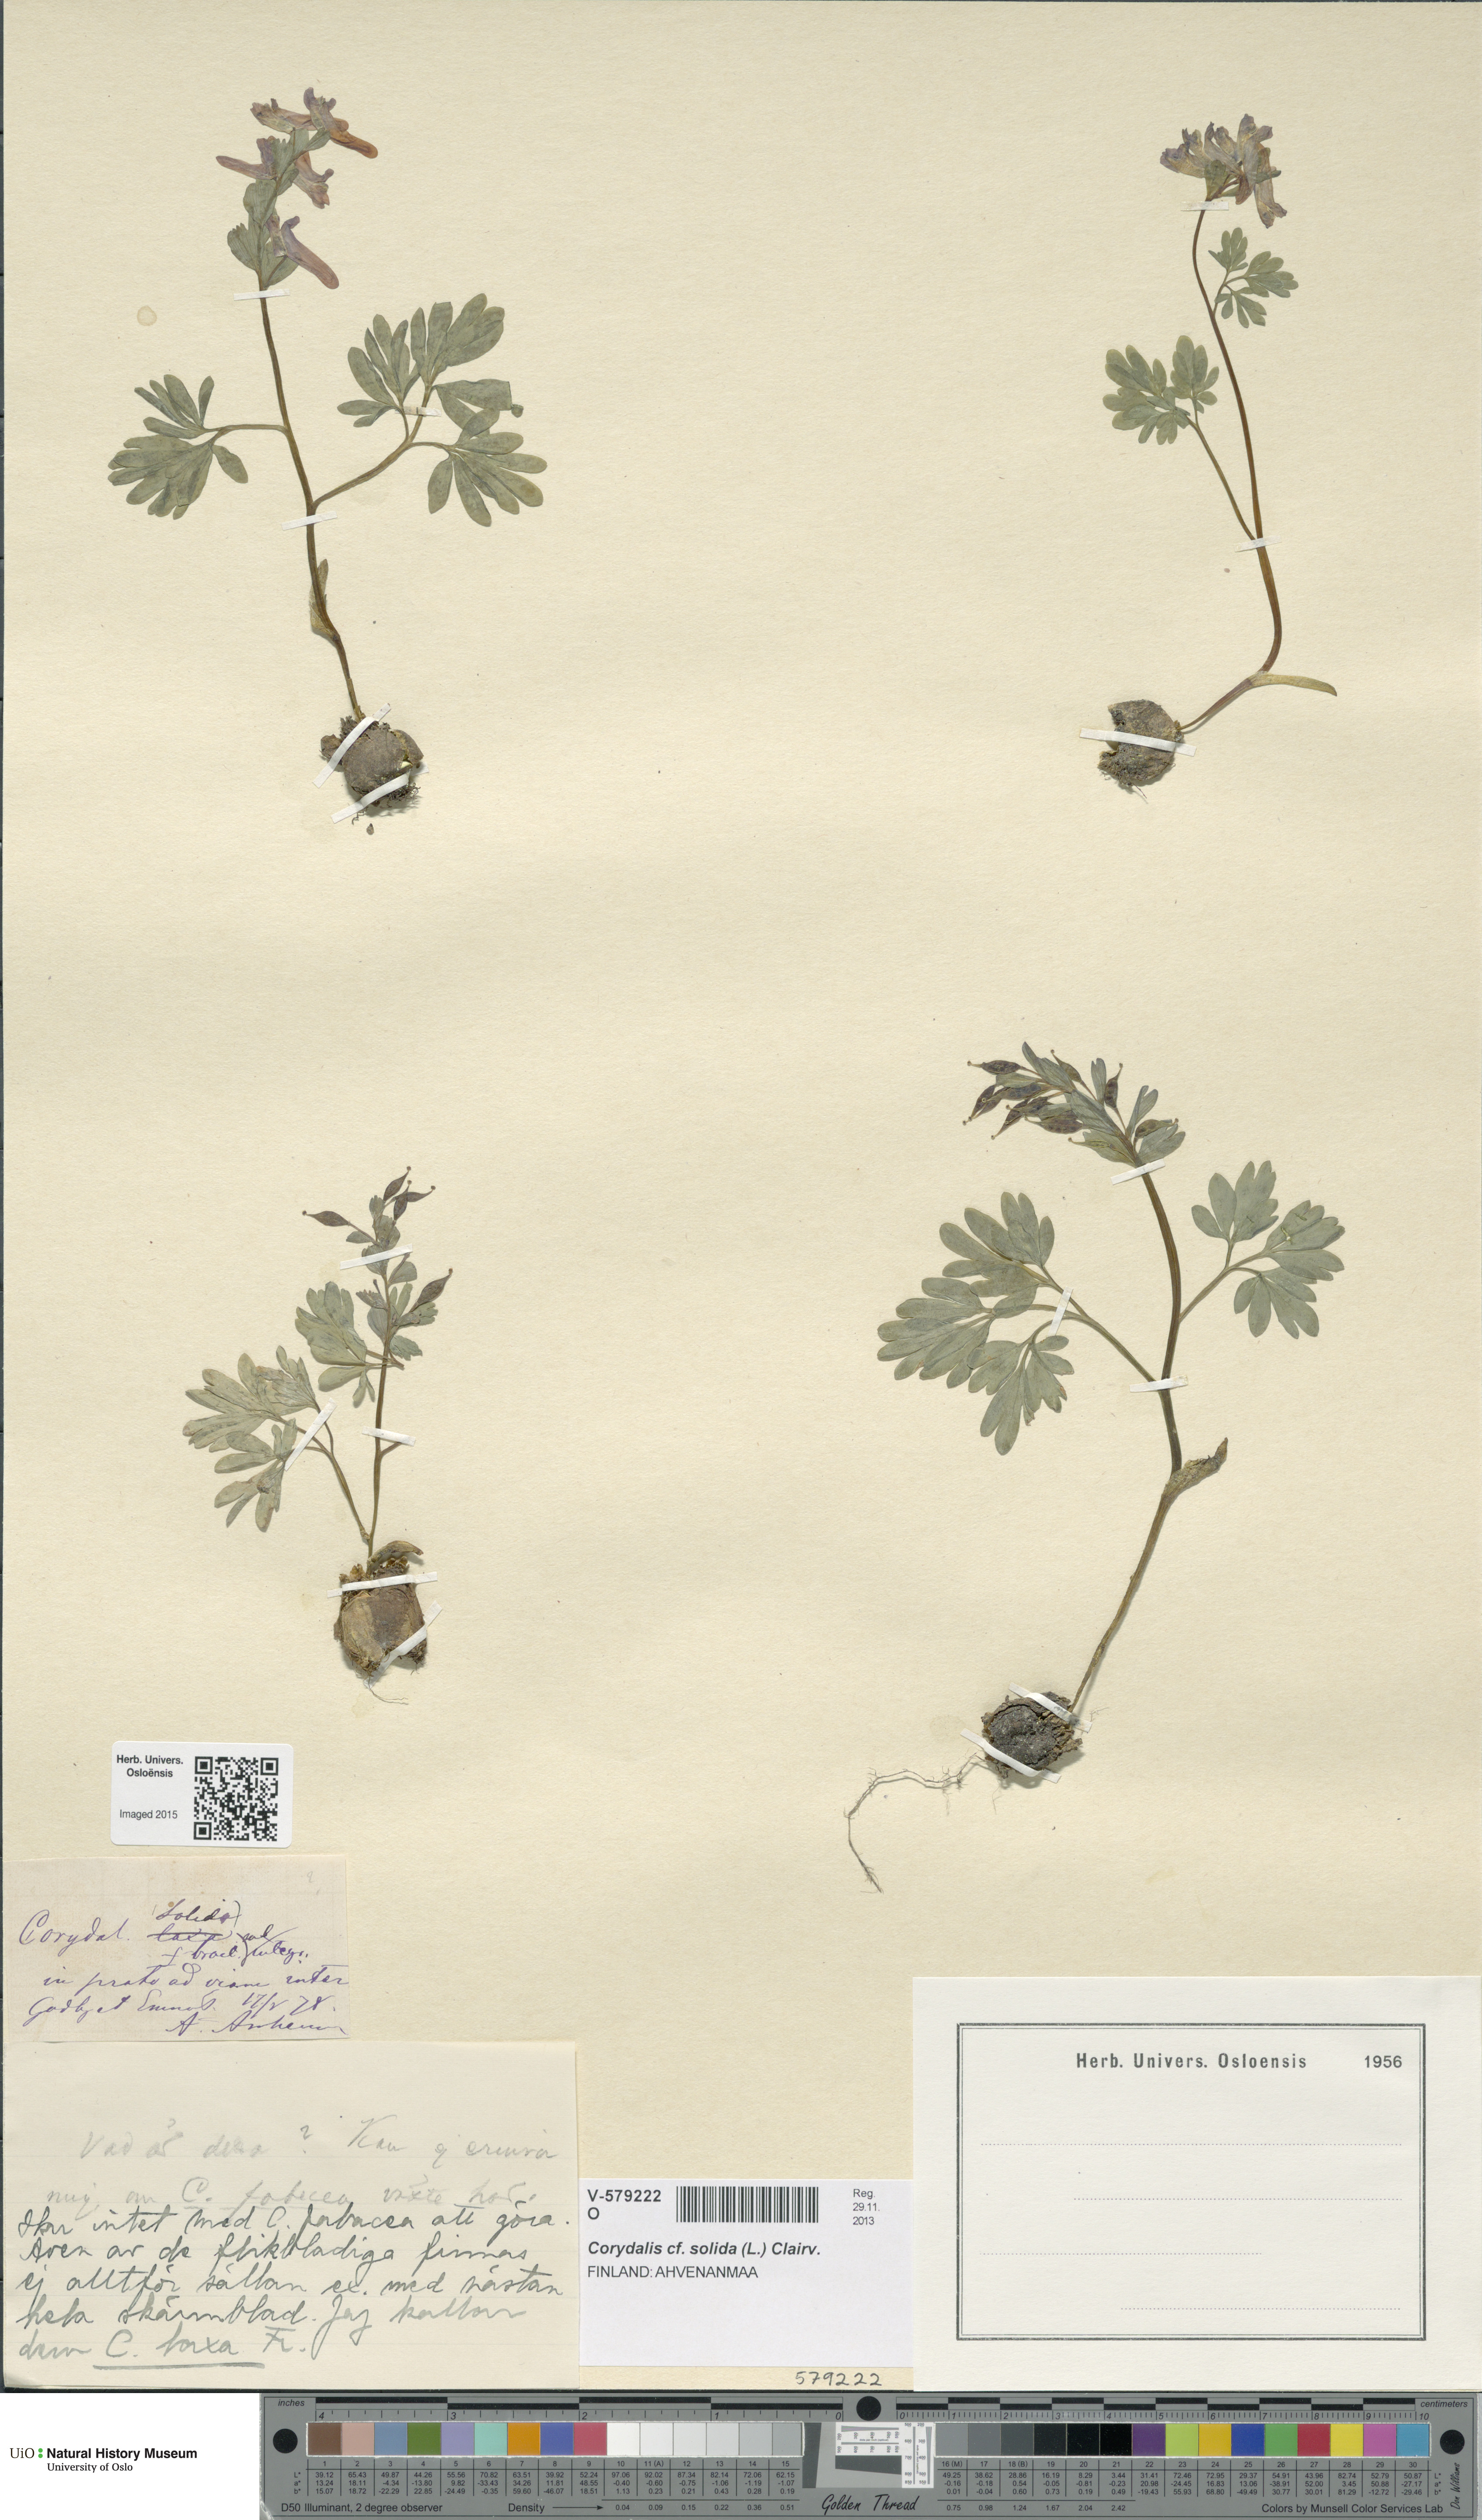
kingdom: Plantae
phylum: Tracheophyta
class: Magnoliopsida
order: Ranunculales
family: Papaveraceae
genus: Corydalis
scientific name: Corydalis solida
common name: Bird-in-a-bush
